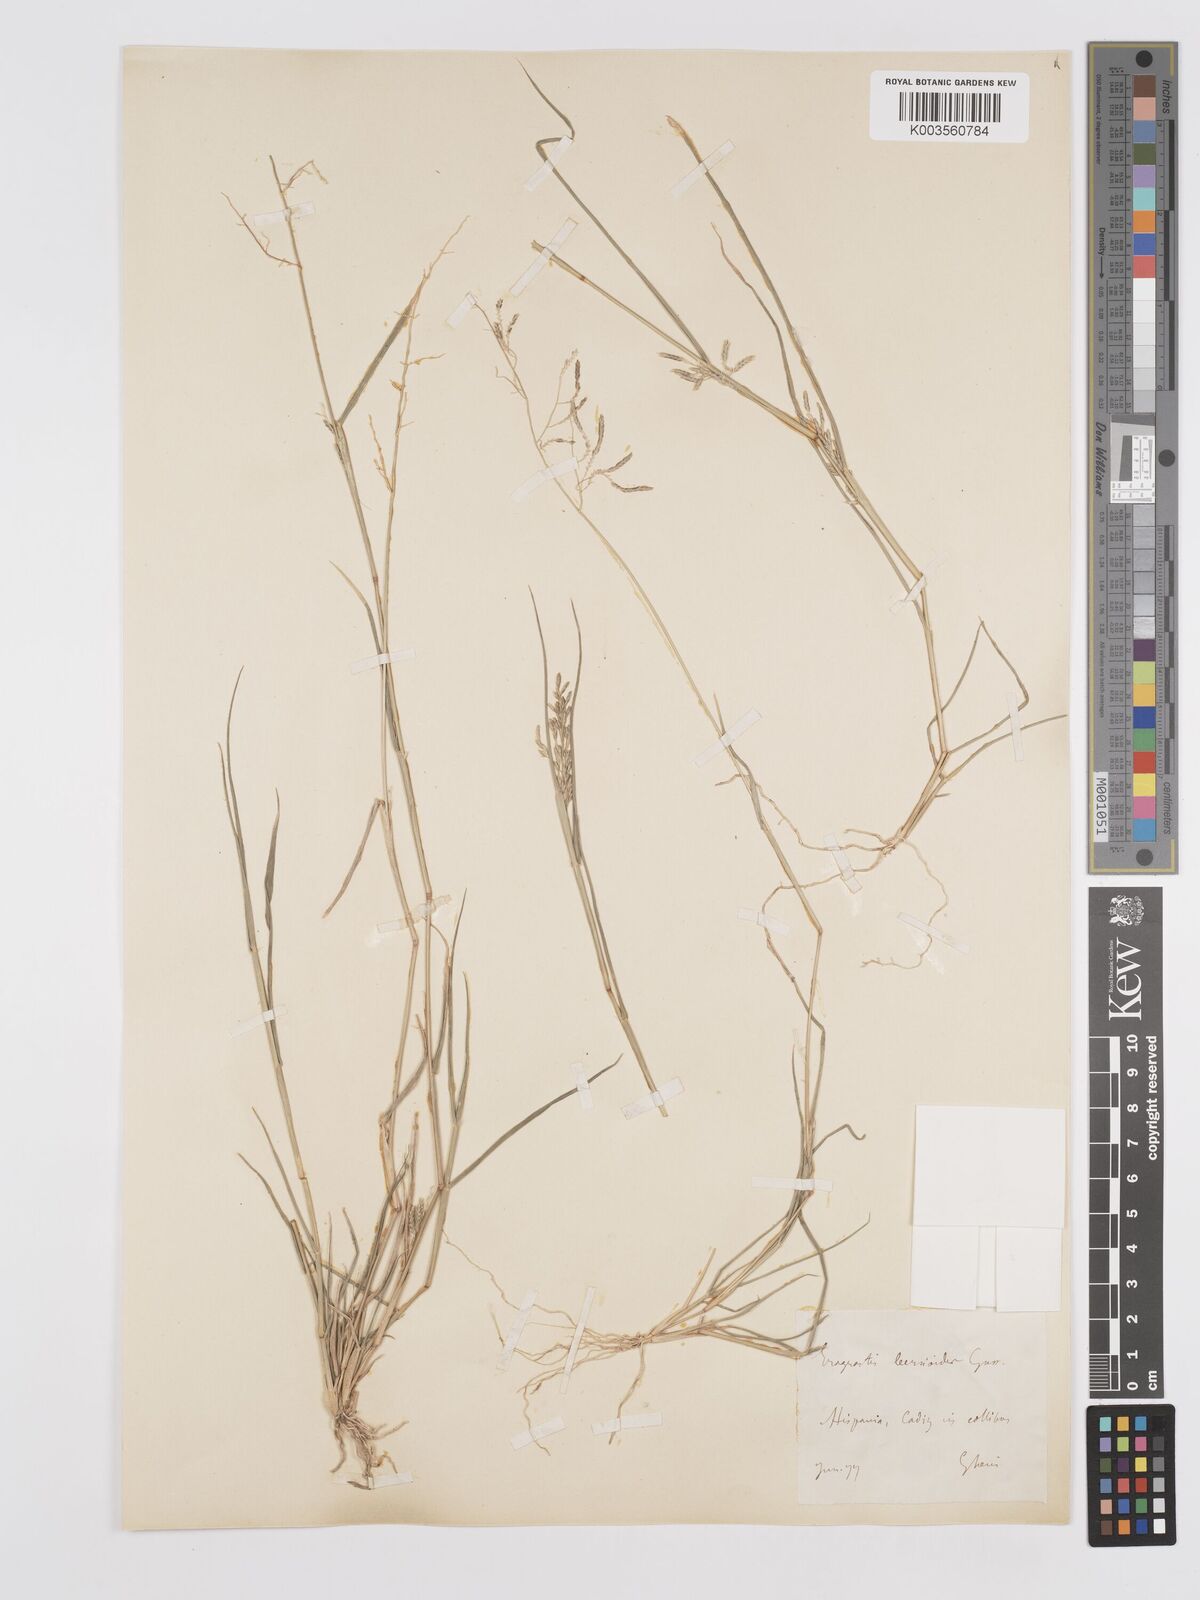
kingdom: Plantae
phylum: Tracheophyta
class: Liliopsida
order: Poales
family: Poaceae
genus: Eragrostis
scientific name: Eragrostis barrelieri
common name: Mediterranean lovegrass
